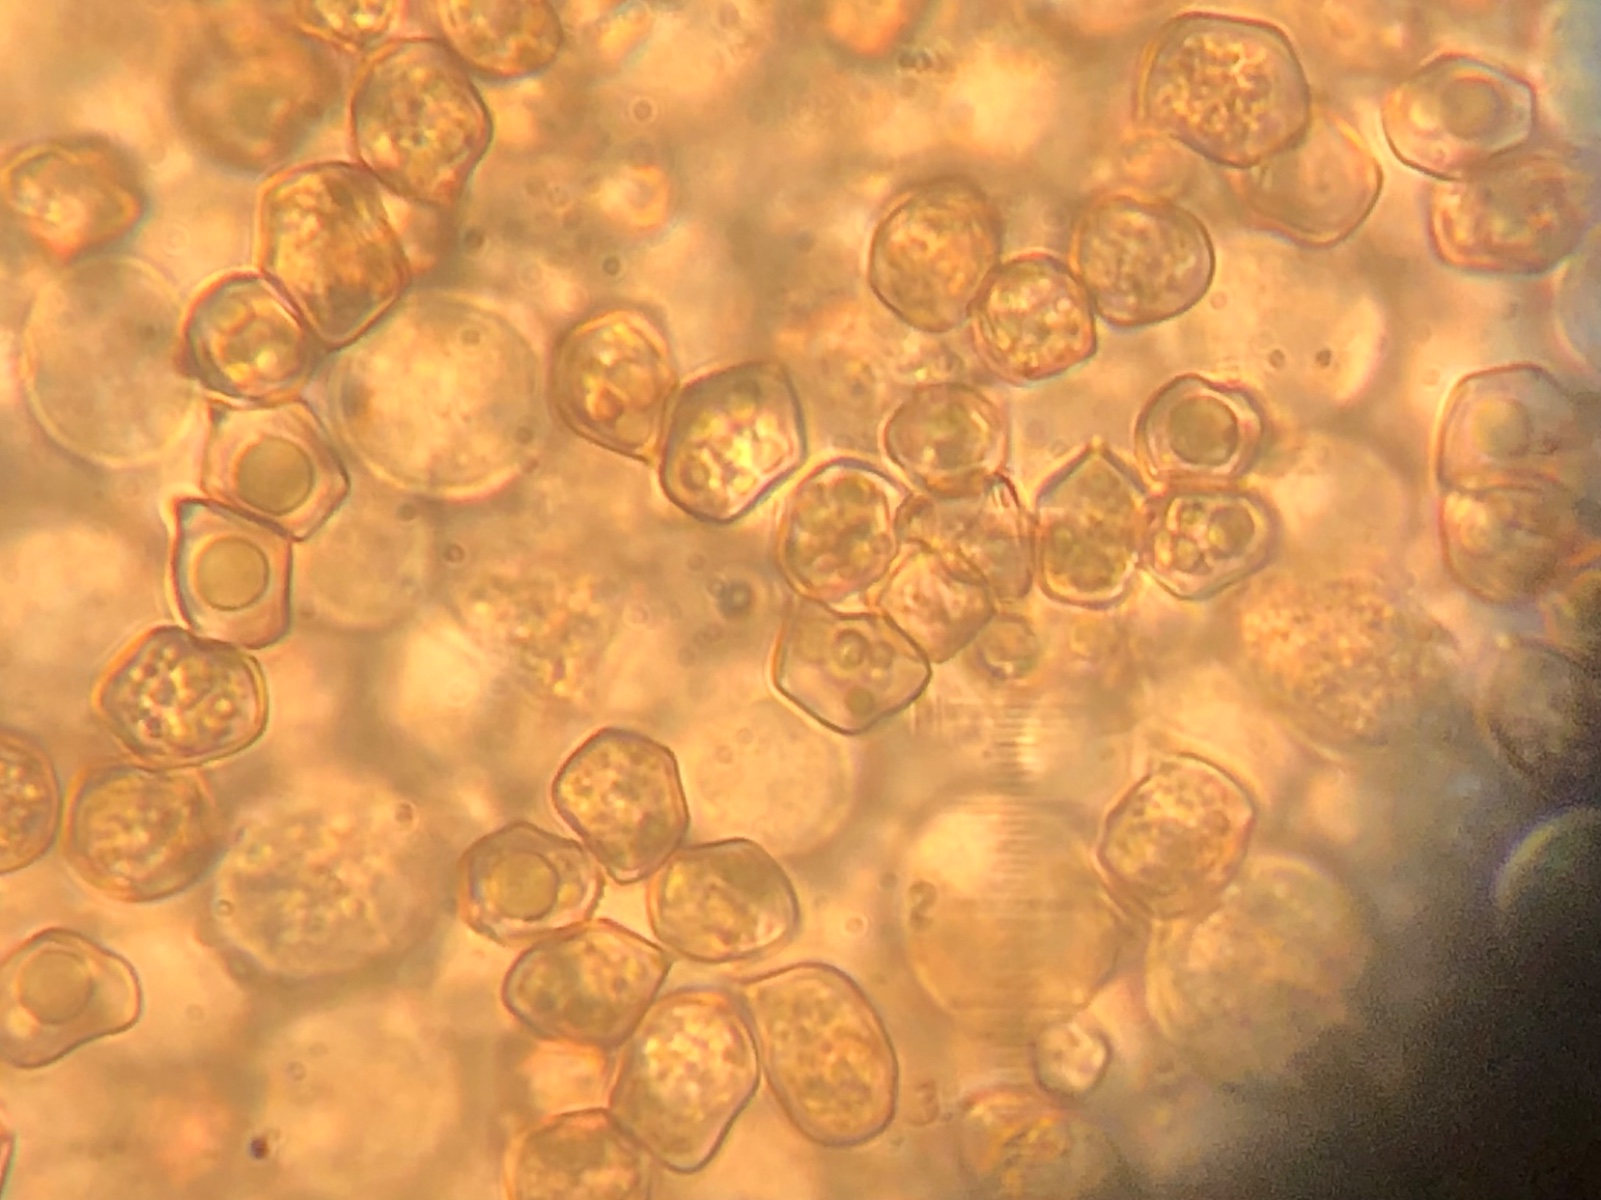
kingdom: Fungi
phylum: Basidiomycota
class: Agaricomycetes
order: Agaricales
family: Entolomataceae
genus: Entoloma
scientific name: Entoloma
